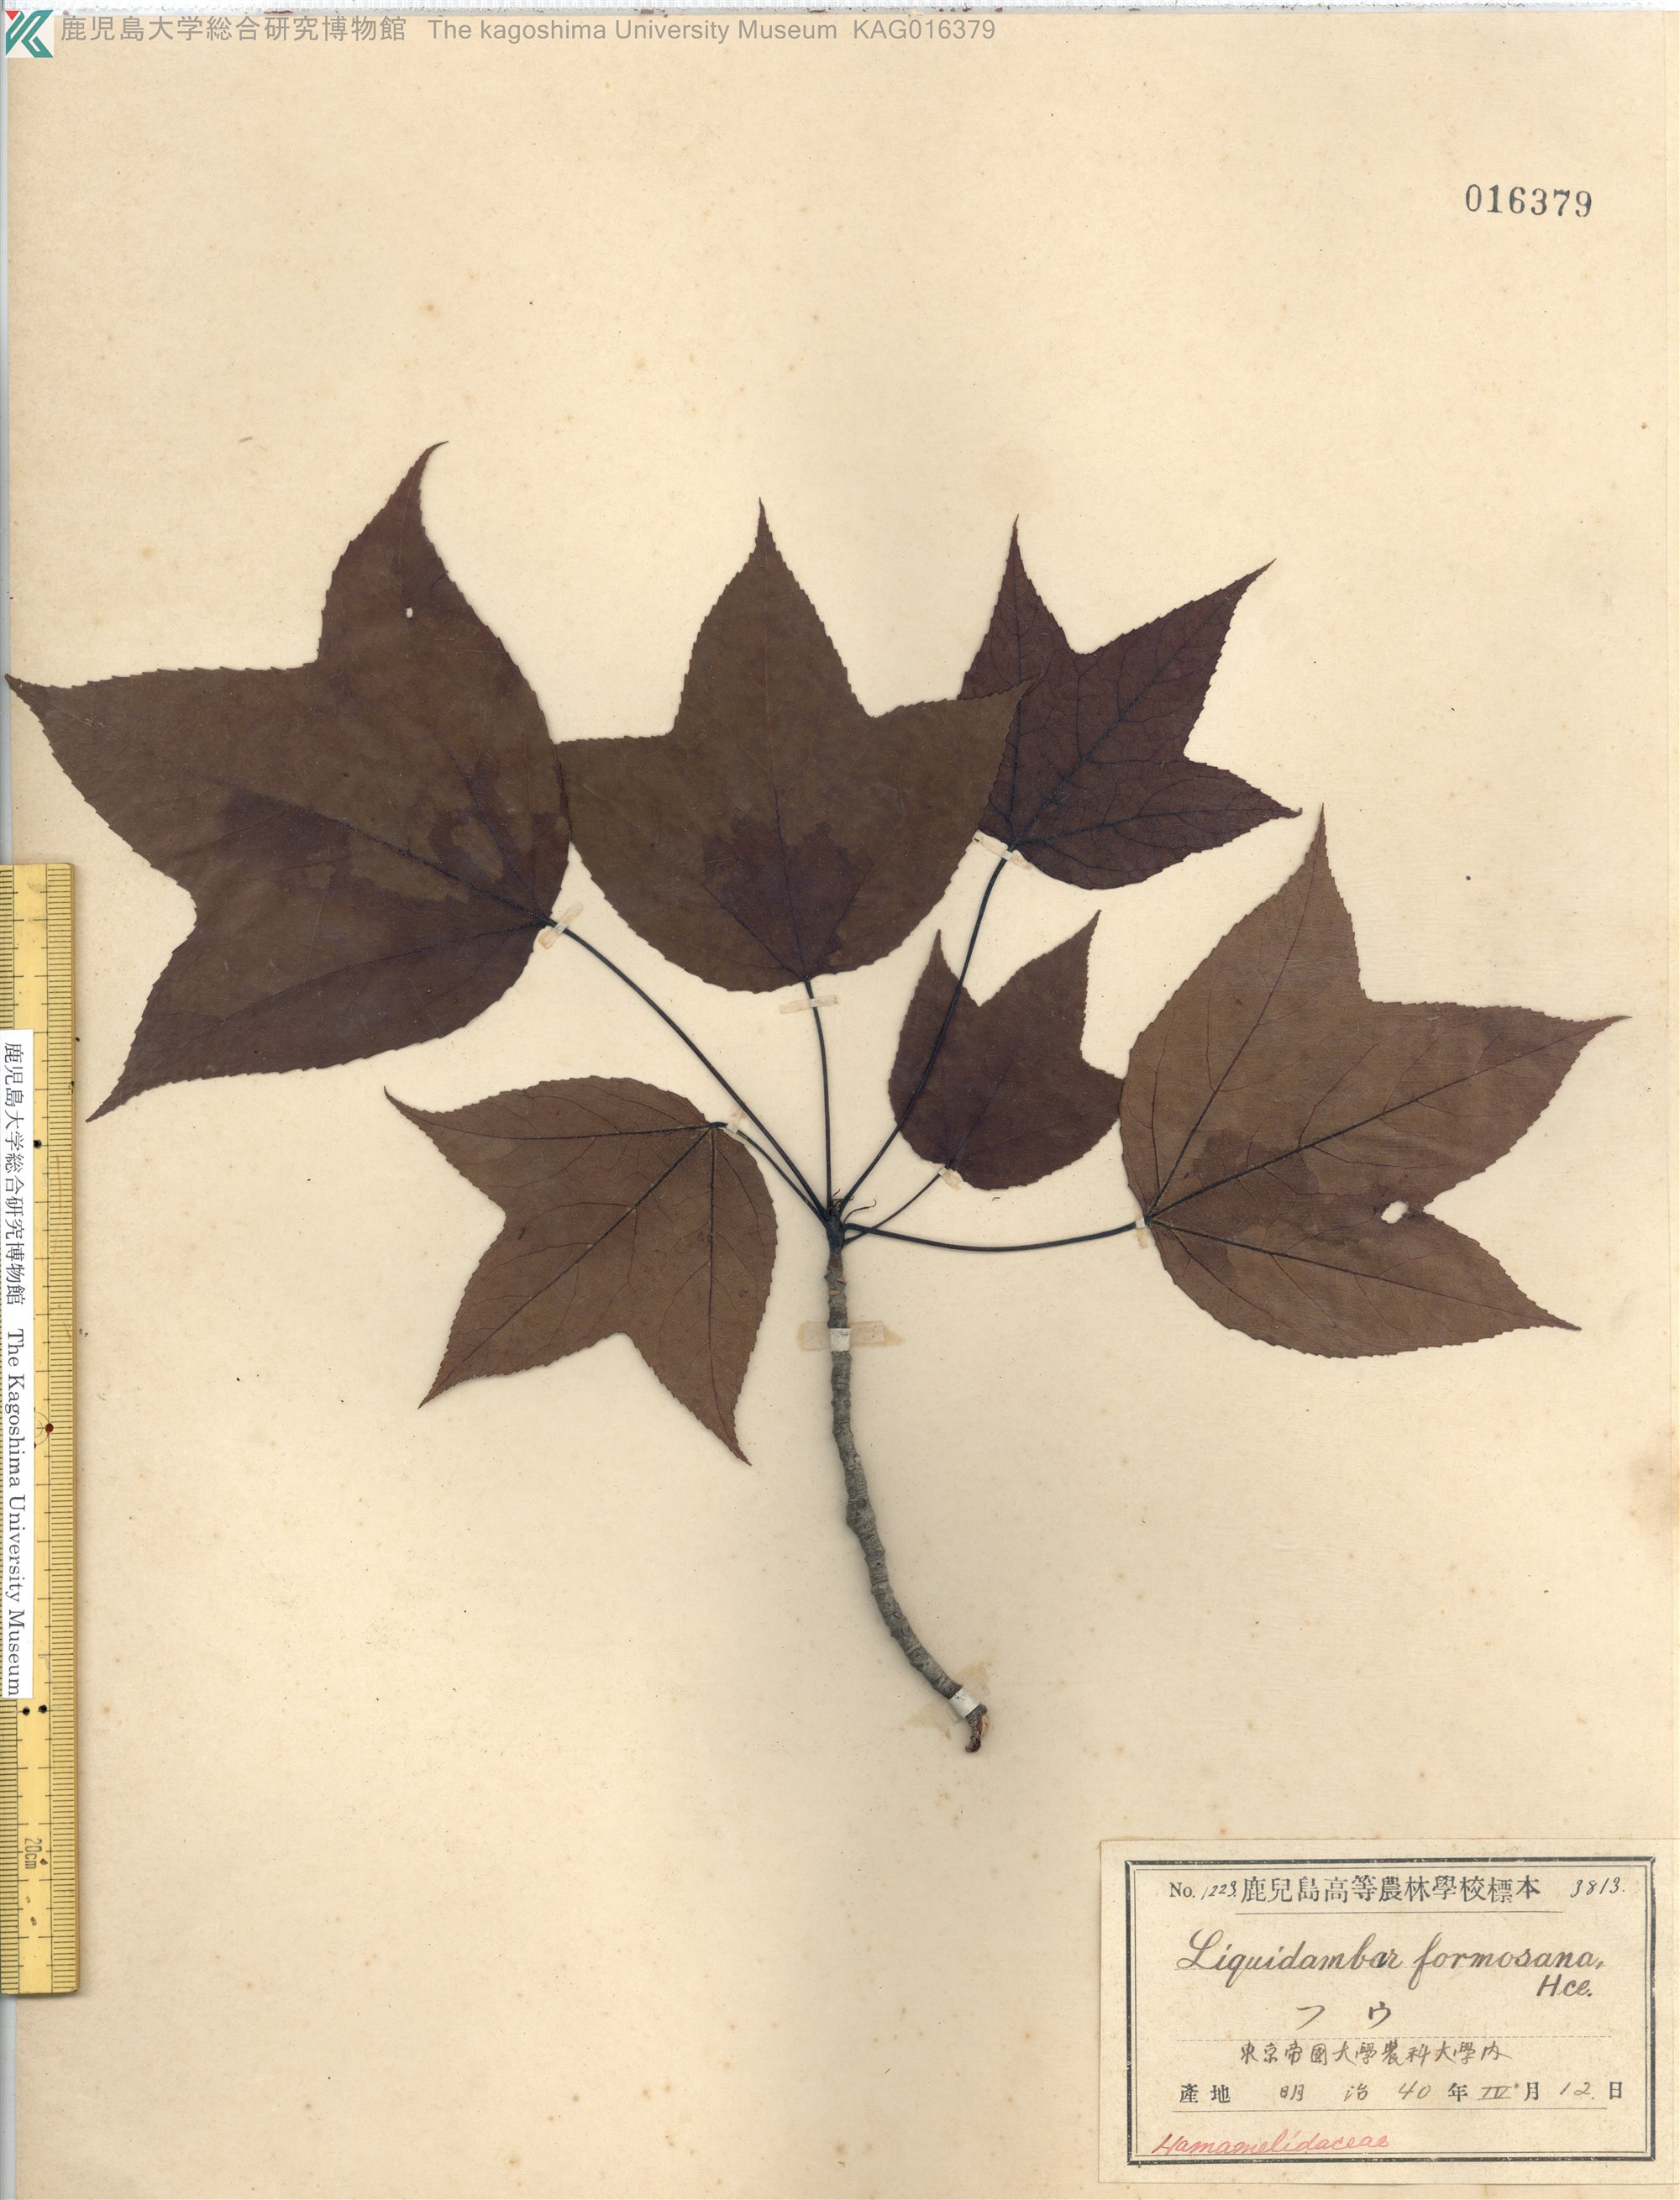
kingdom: Plantae
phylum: Tracheophyta
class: Magnoliopsida
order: Saxifragales
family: Altingiaceae
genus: Liquidambar
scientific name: Liquidambar formosana
